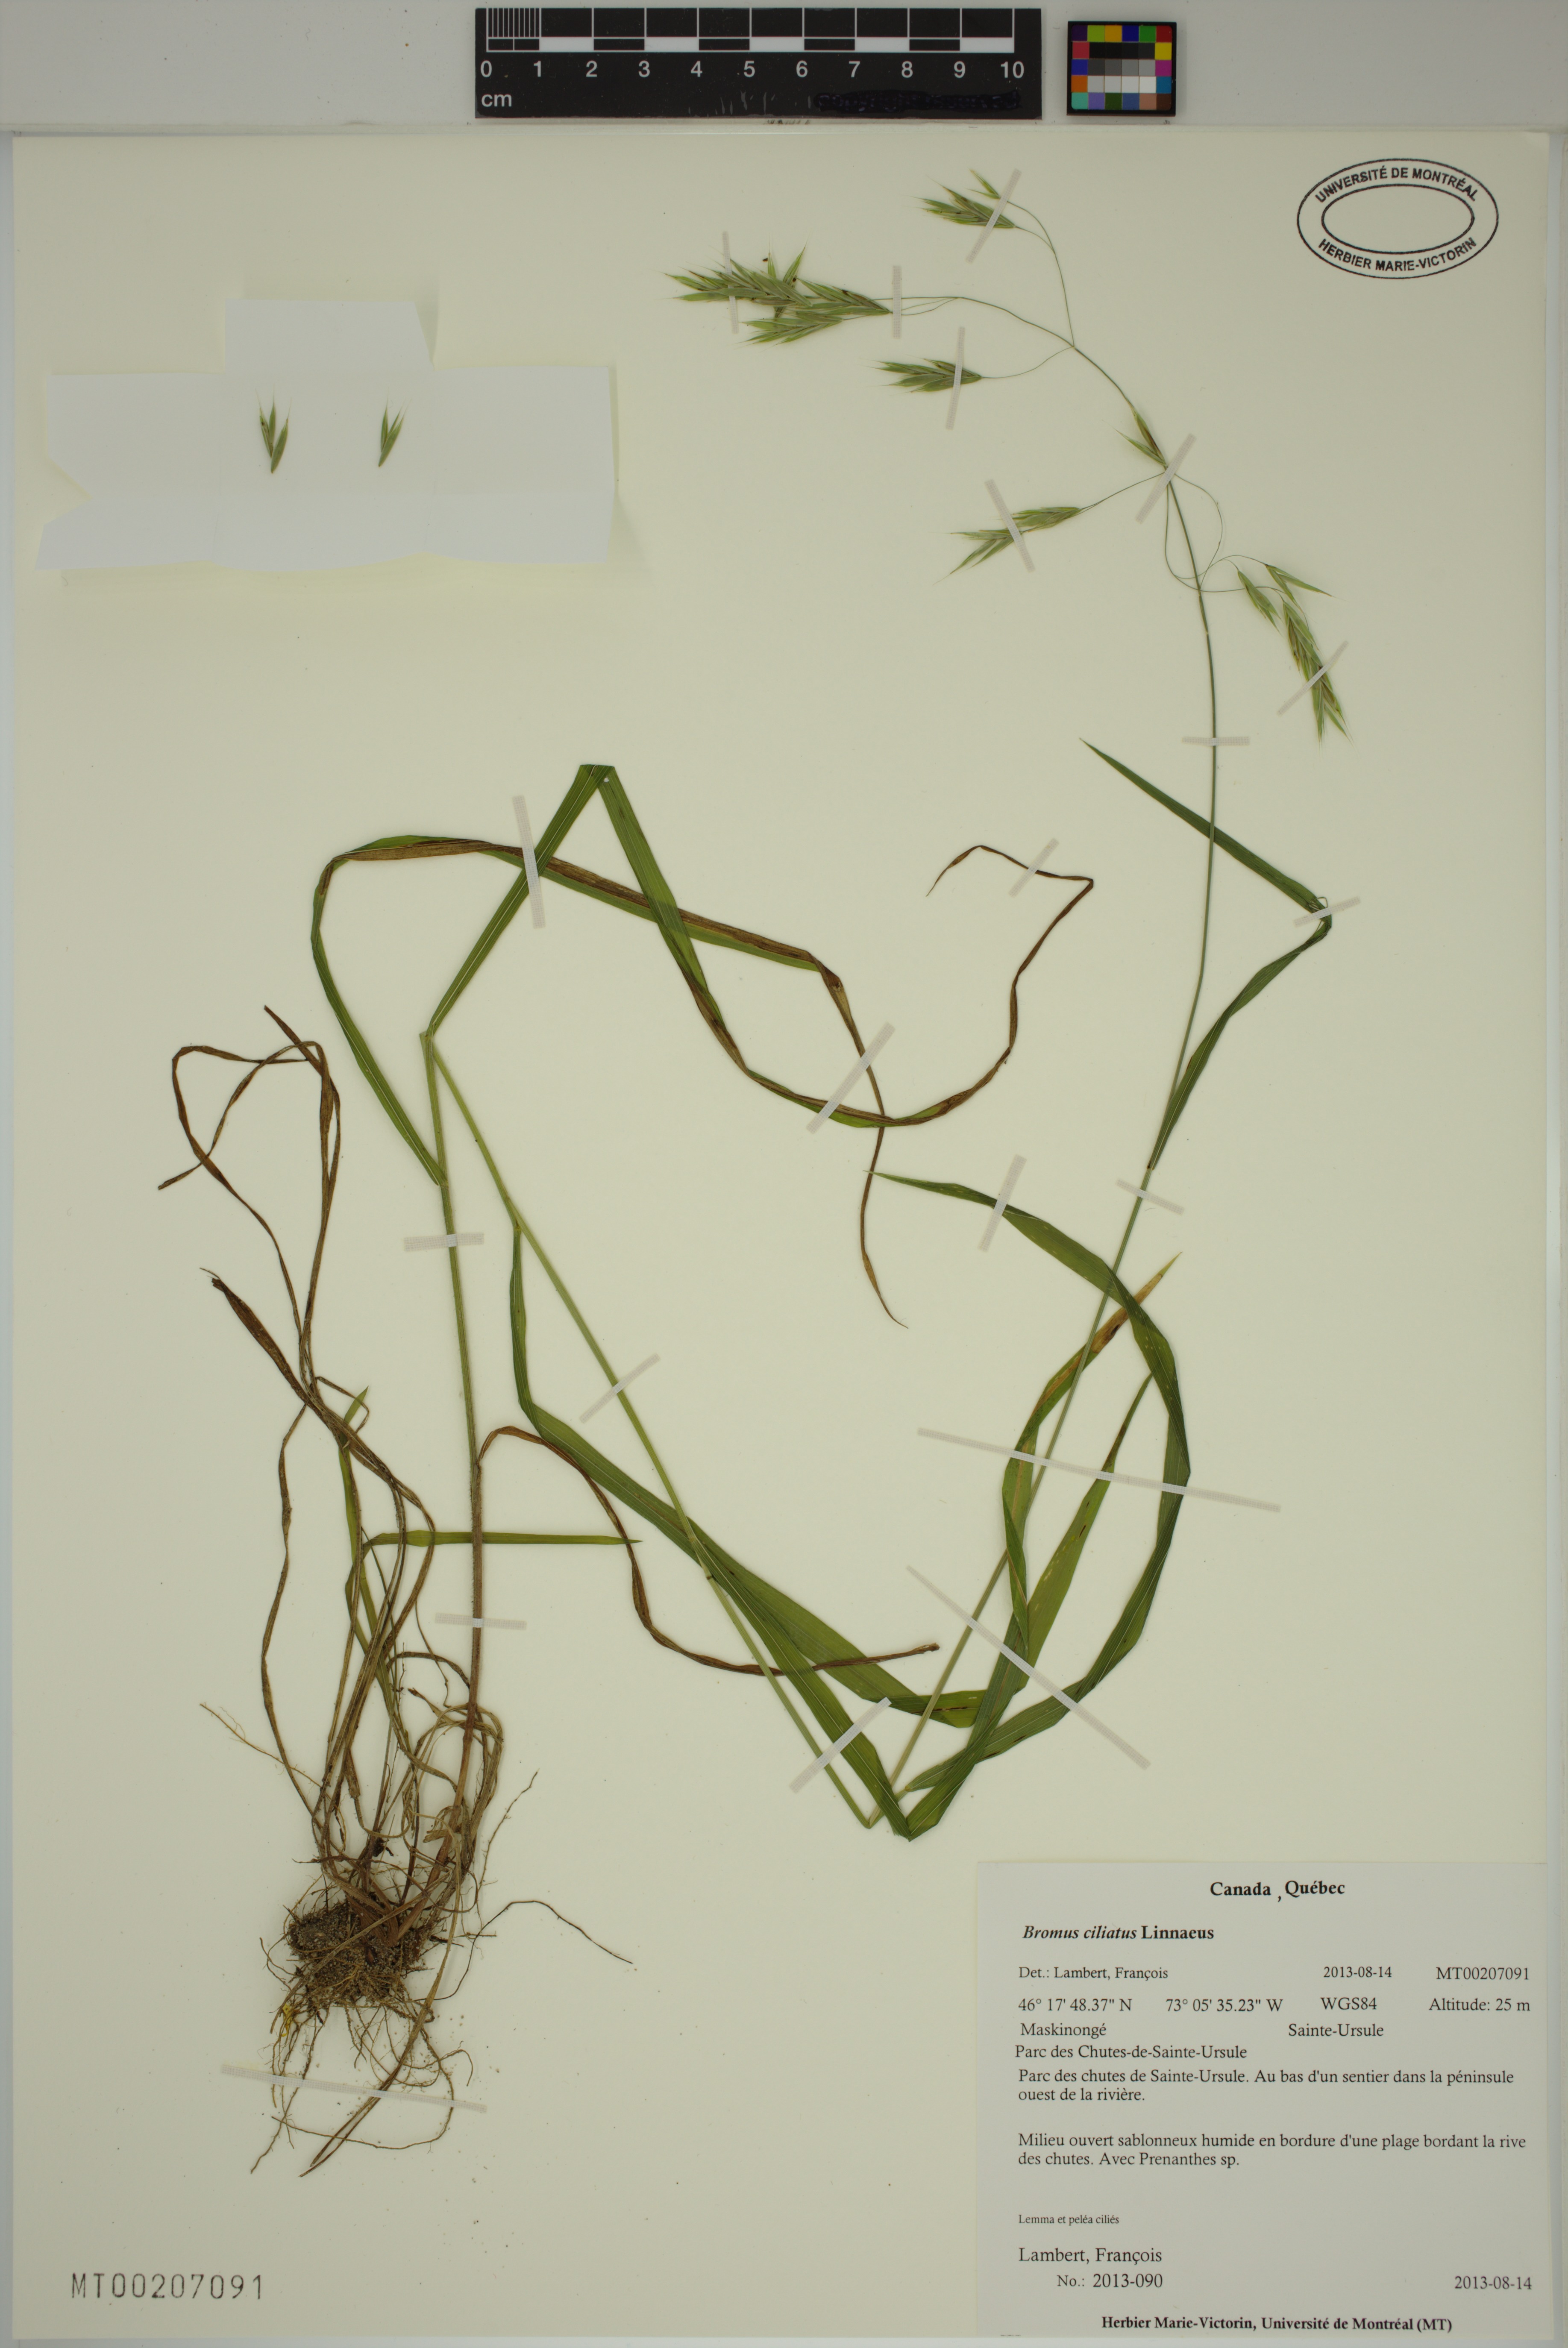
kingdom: Plantae
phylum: Tracheophyta
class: Liliopsida
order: Poales
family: Poaceae
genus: Bromus
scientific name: Bromus ciliatus
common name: Fringe brome
